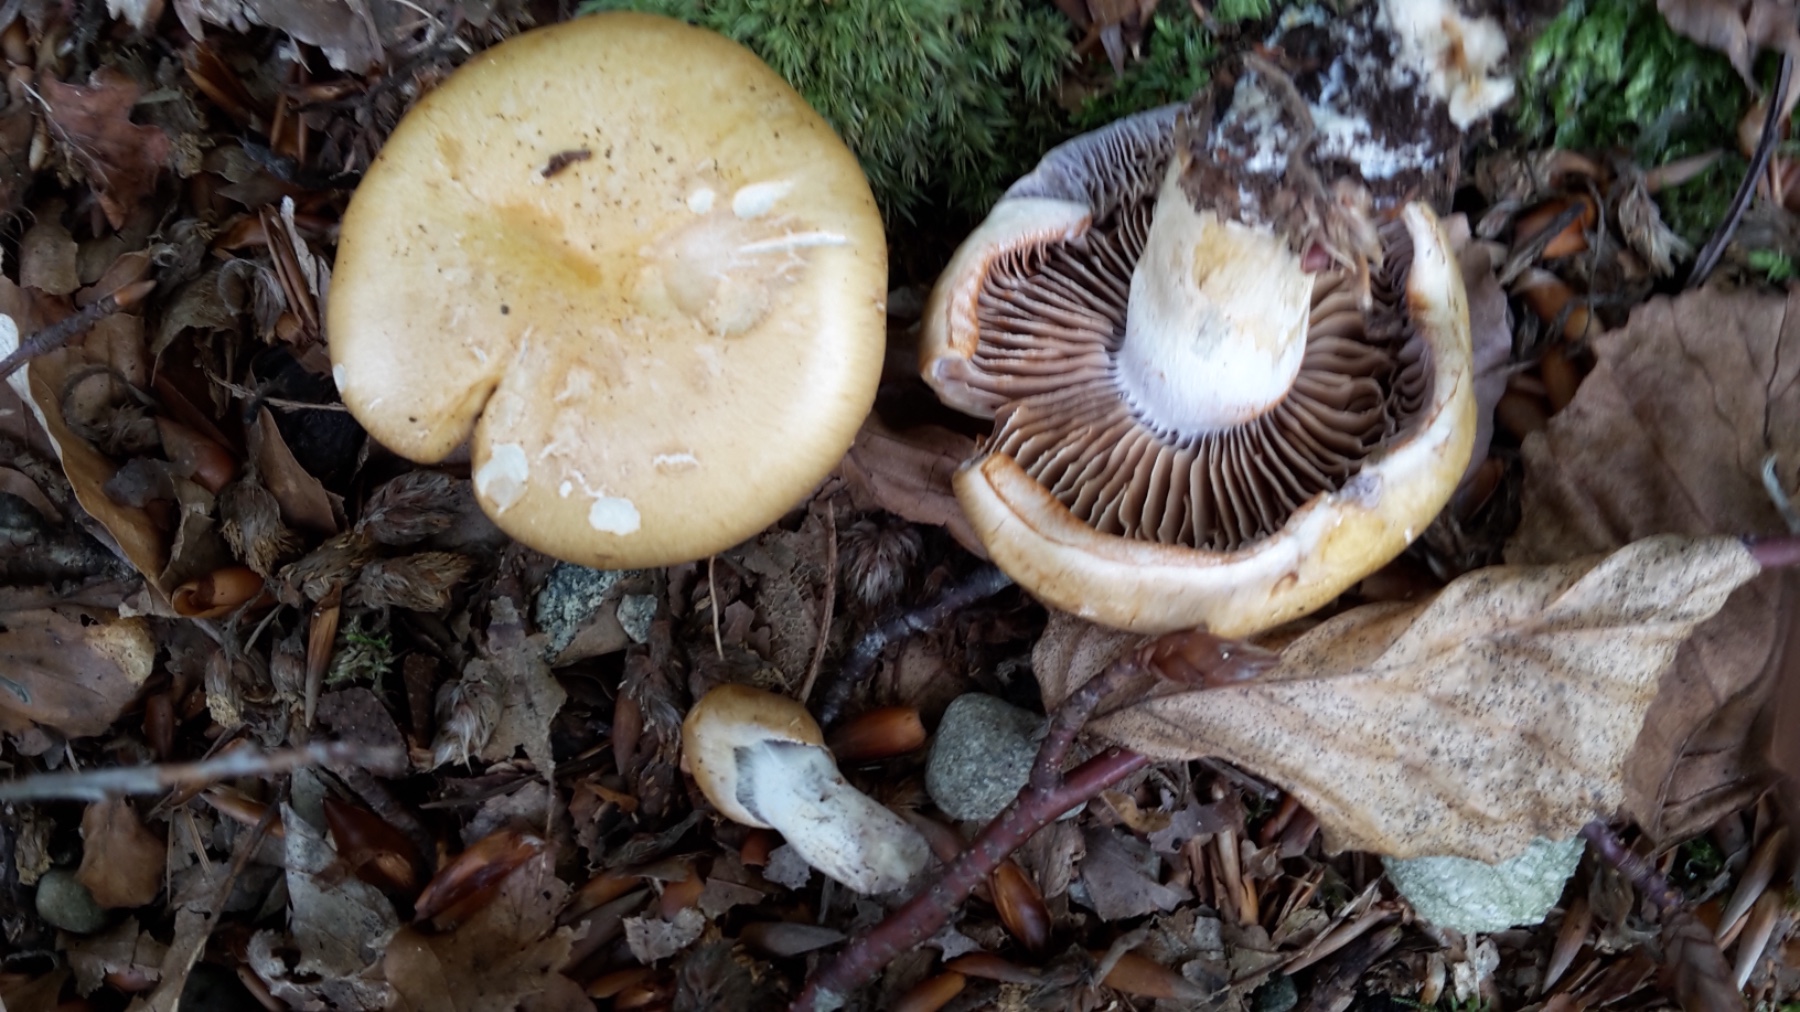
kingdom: Fungi
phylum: Basidiomycota
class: Agaricomycetes
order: Agaricales
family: Cortinariaceae
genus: Cortinarius
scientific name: Cortinarius delibutus
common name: gul slørhat
